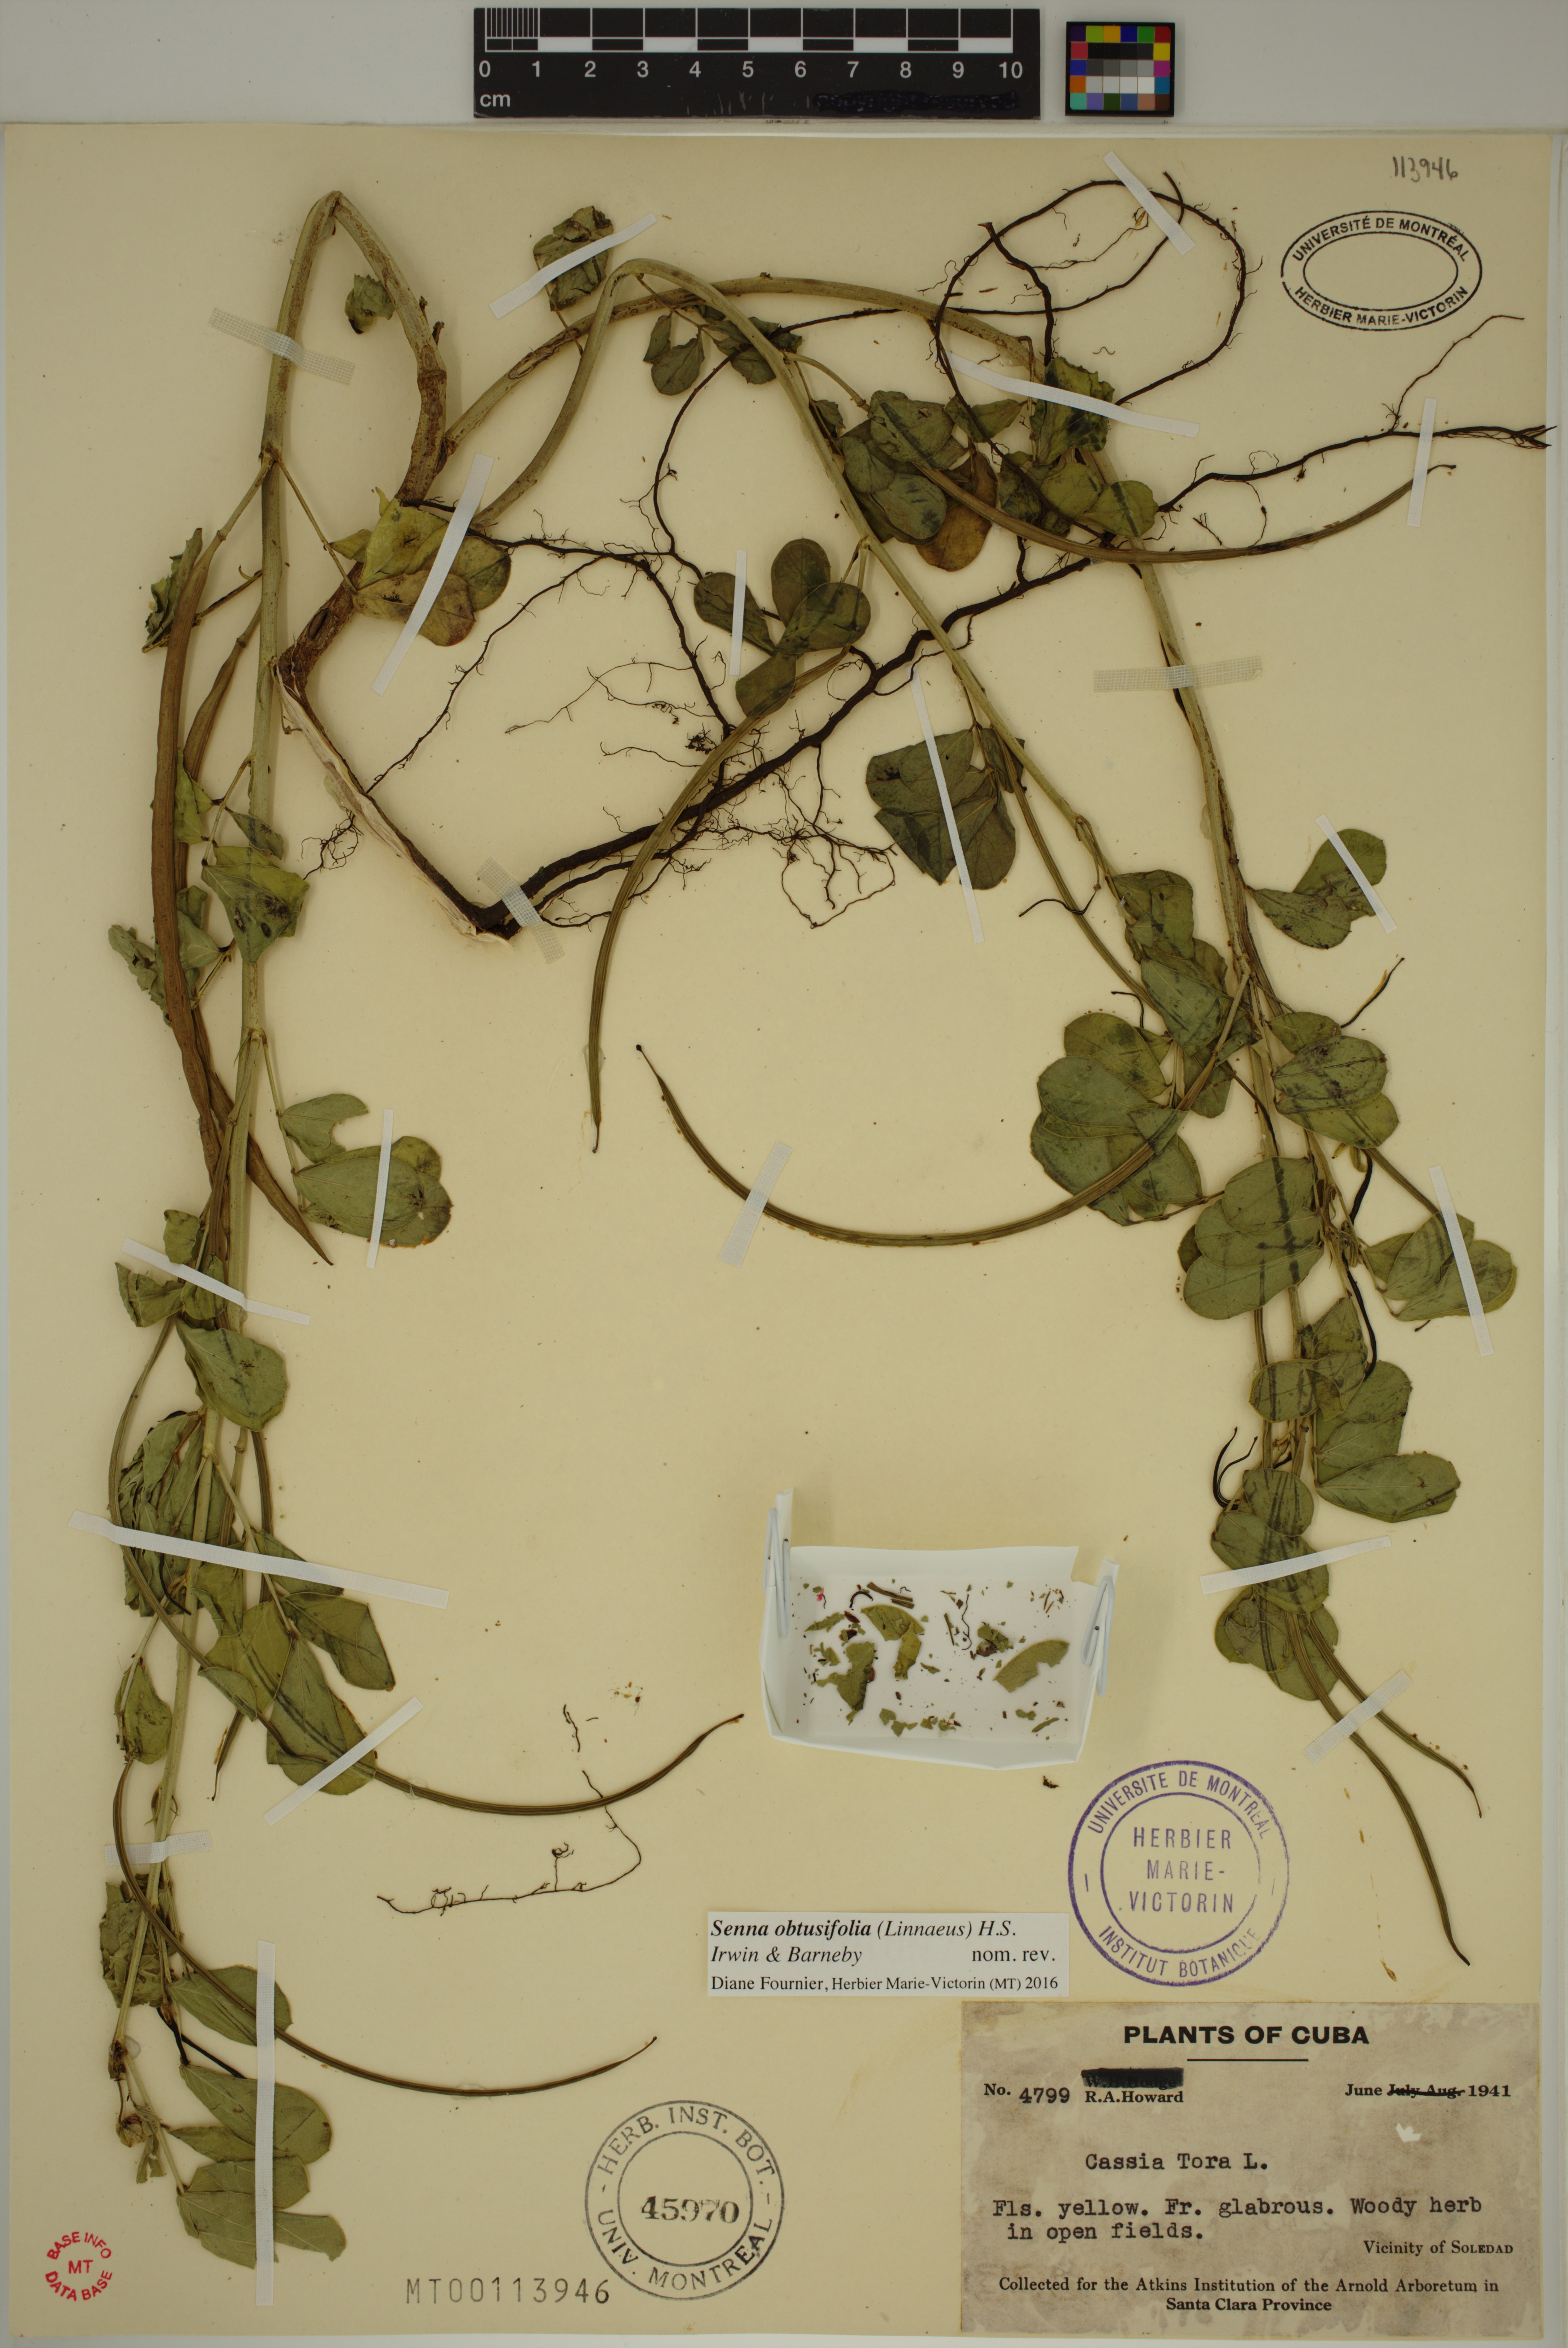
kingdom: Plantae
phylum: Tracheophyta
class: Magnoliopsida
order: Fabales
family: Fabaceae
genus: Senna
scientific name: Senna obtusifolia
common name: Java-bean
